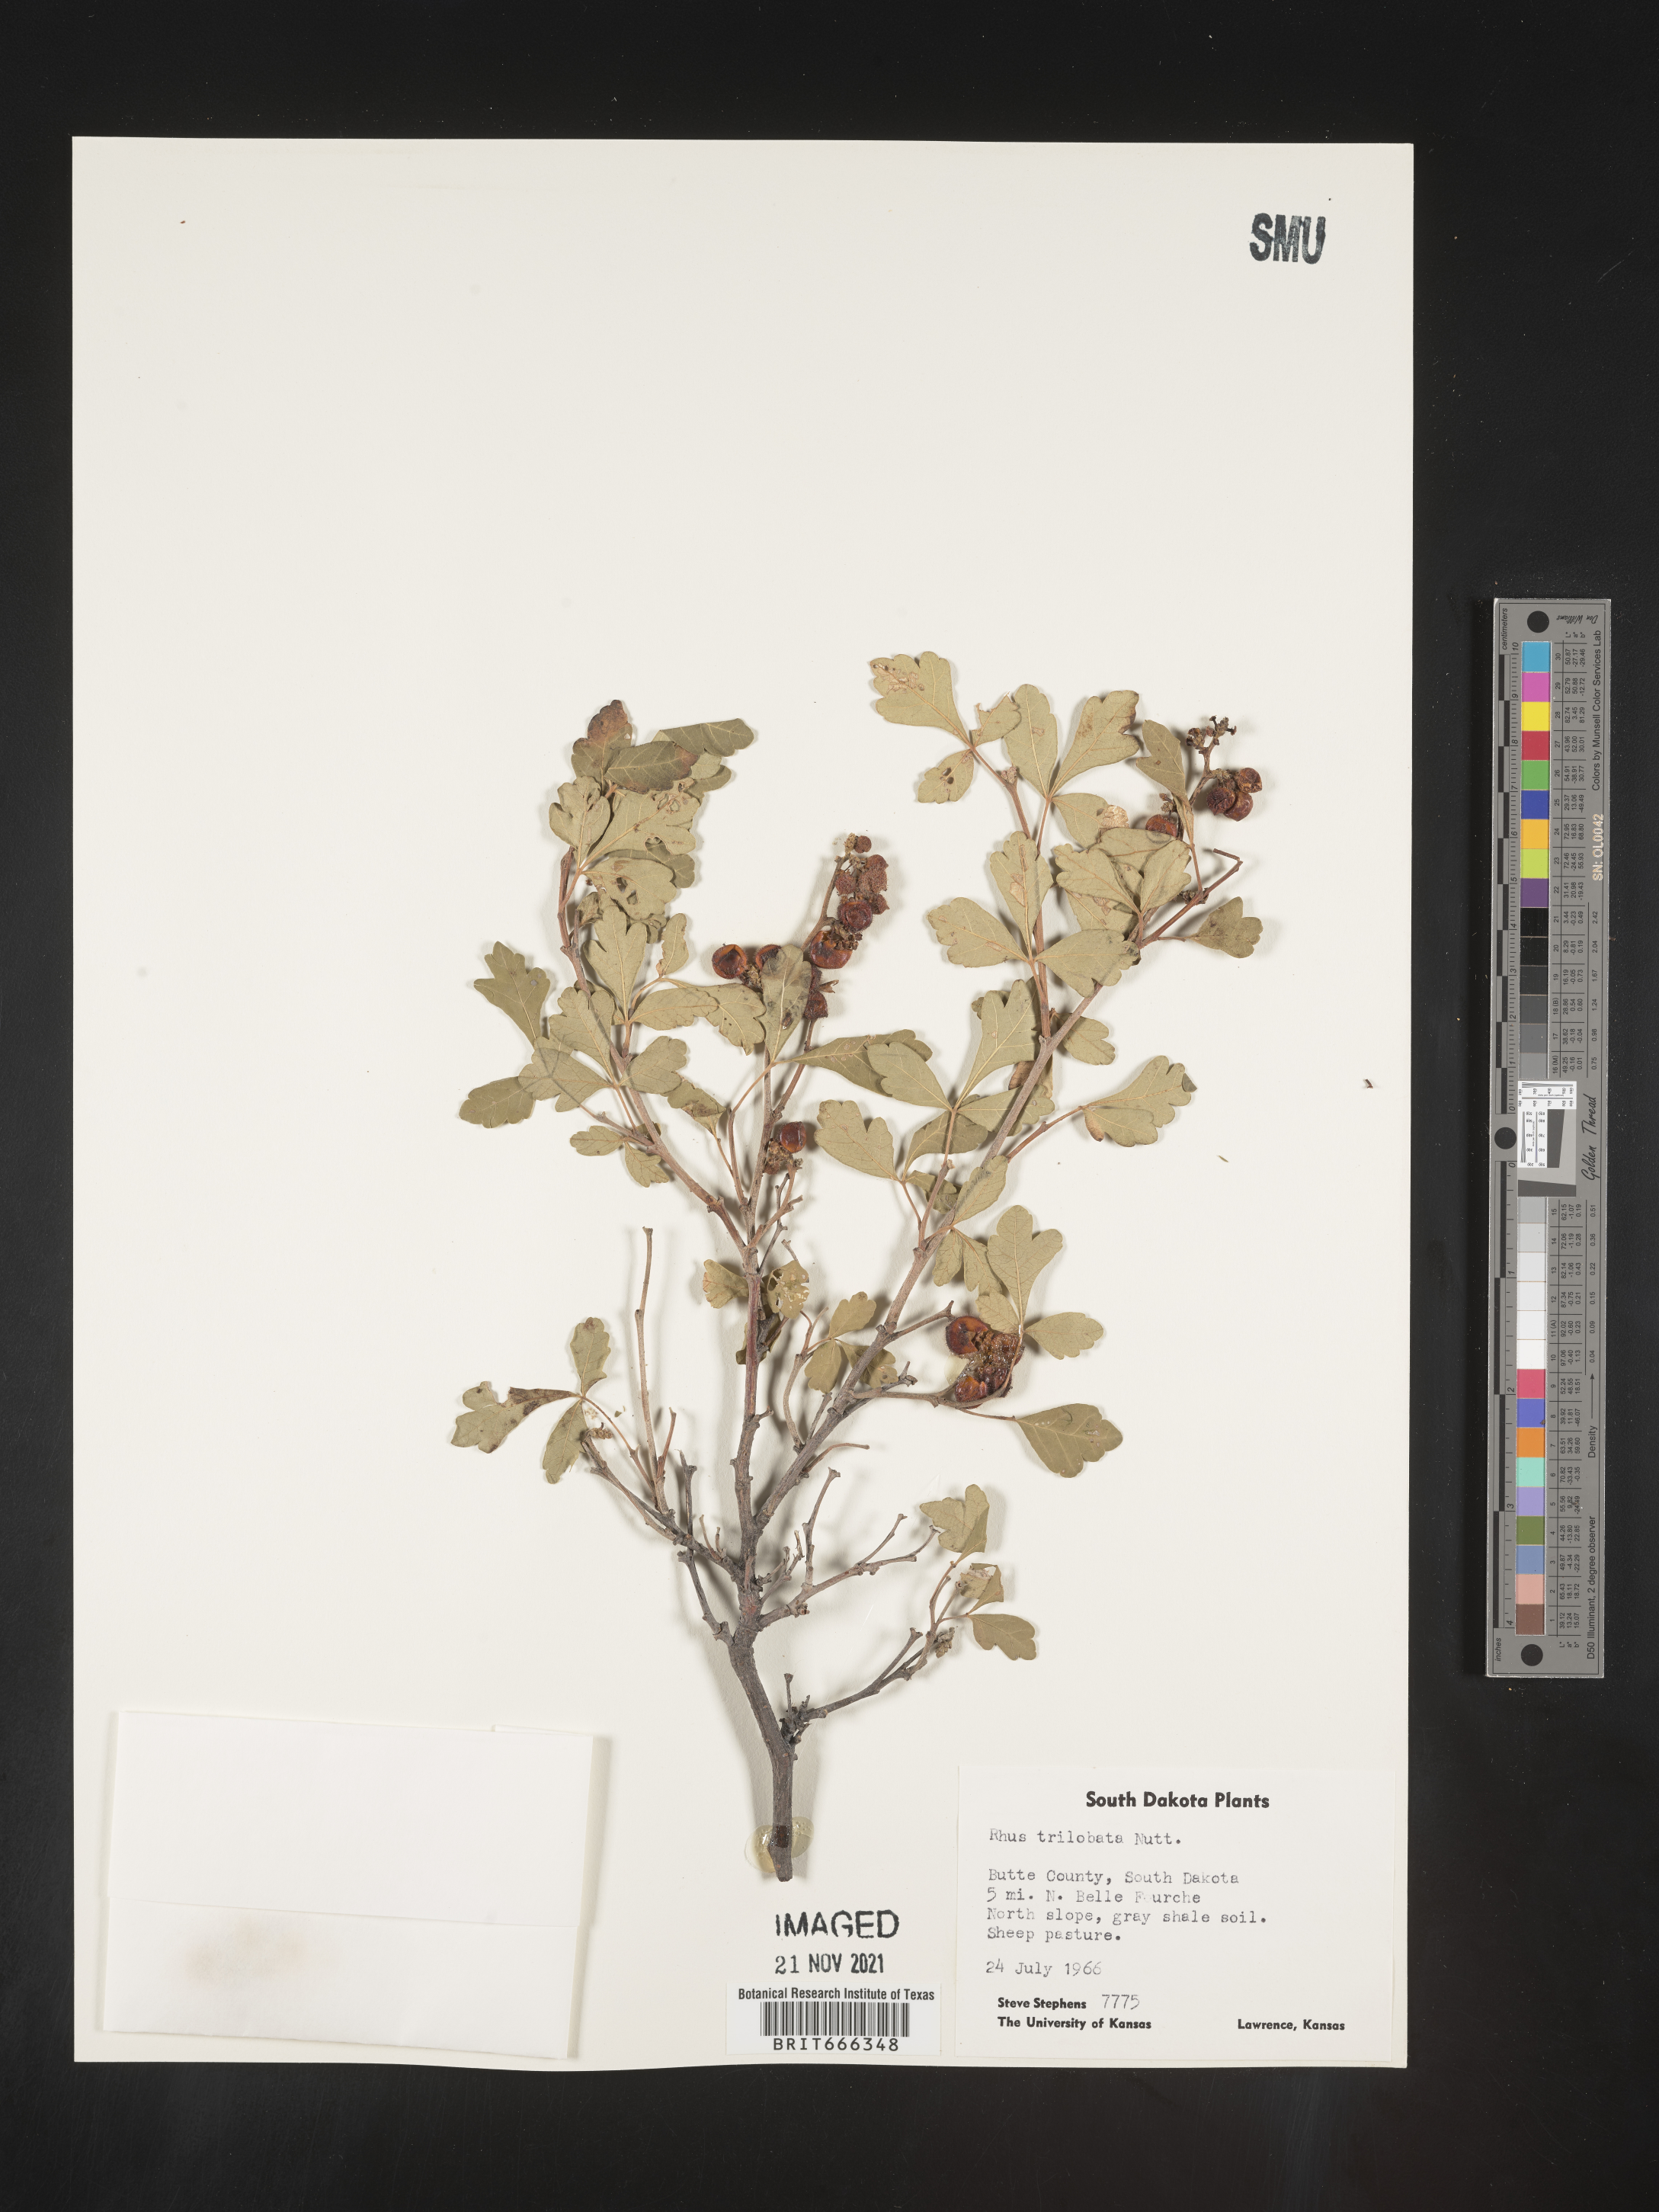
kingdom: Plantae
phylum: Tracheophyta
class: Magnoliopsida
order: Sapindales
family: Anacardiaceae
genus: Rhus
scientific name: Rhus trilobata
